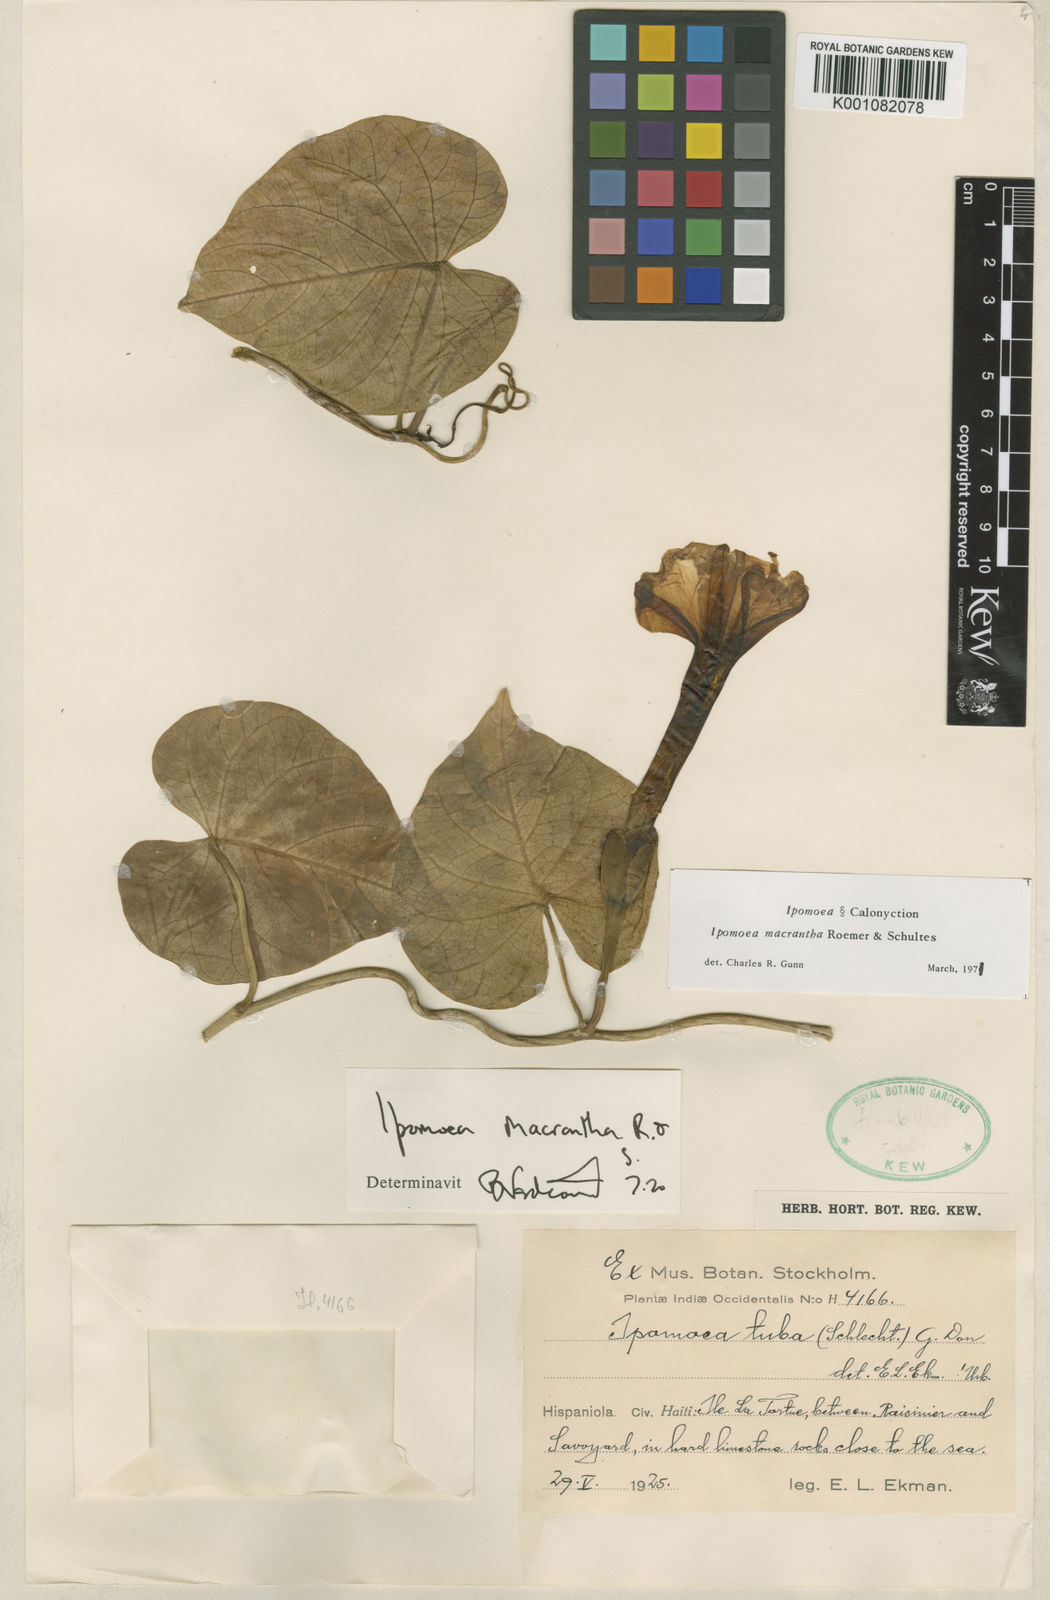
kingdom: Plantae
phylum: Tracheophyta
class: Magnoliopsida
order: Solanales
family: Convolvulaceae
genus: Ipomoea
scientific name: Ipomoea violacea
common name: Beach moonflower
